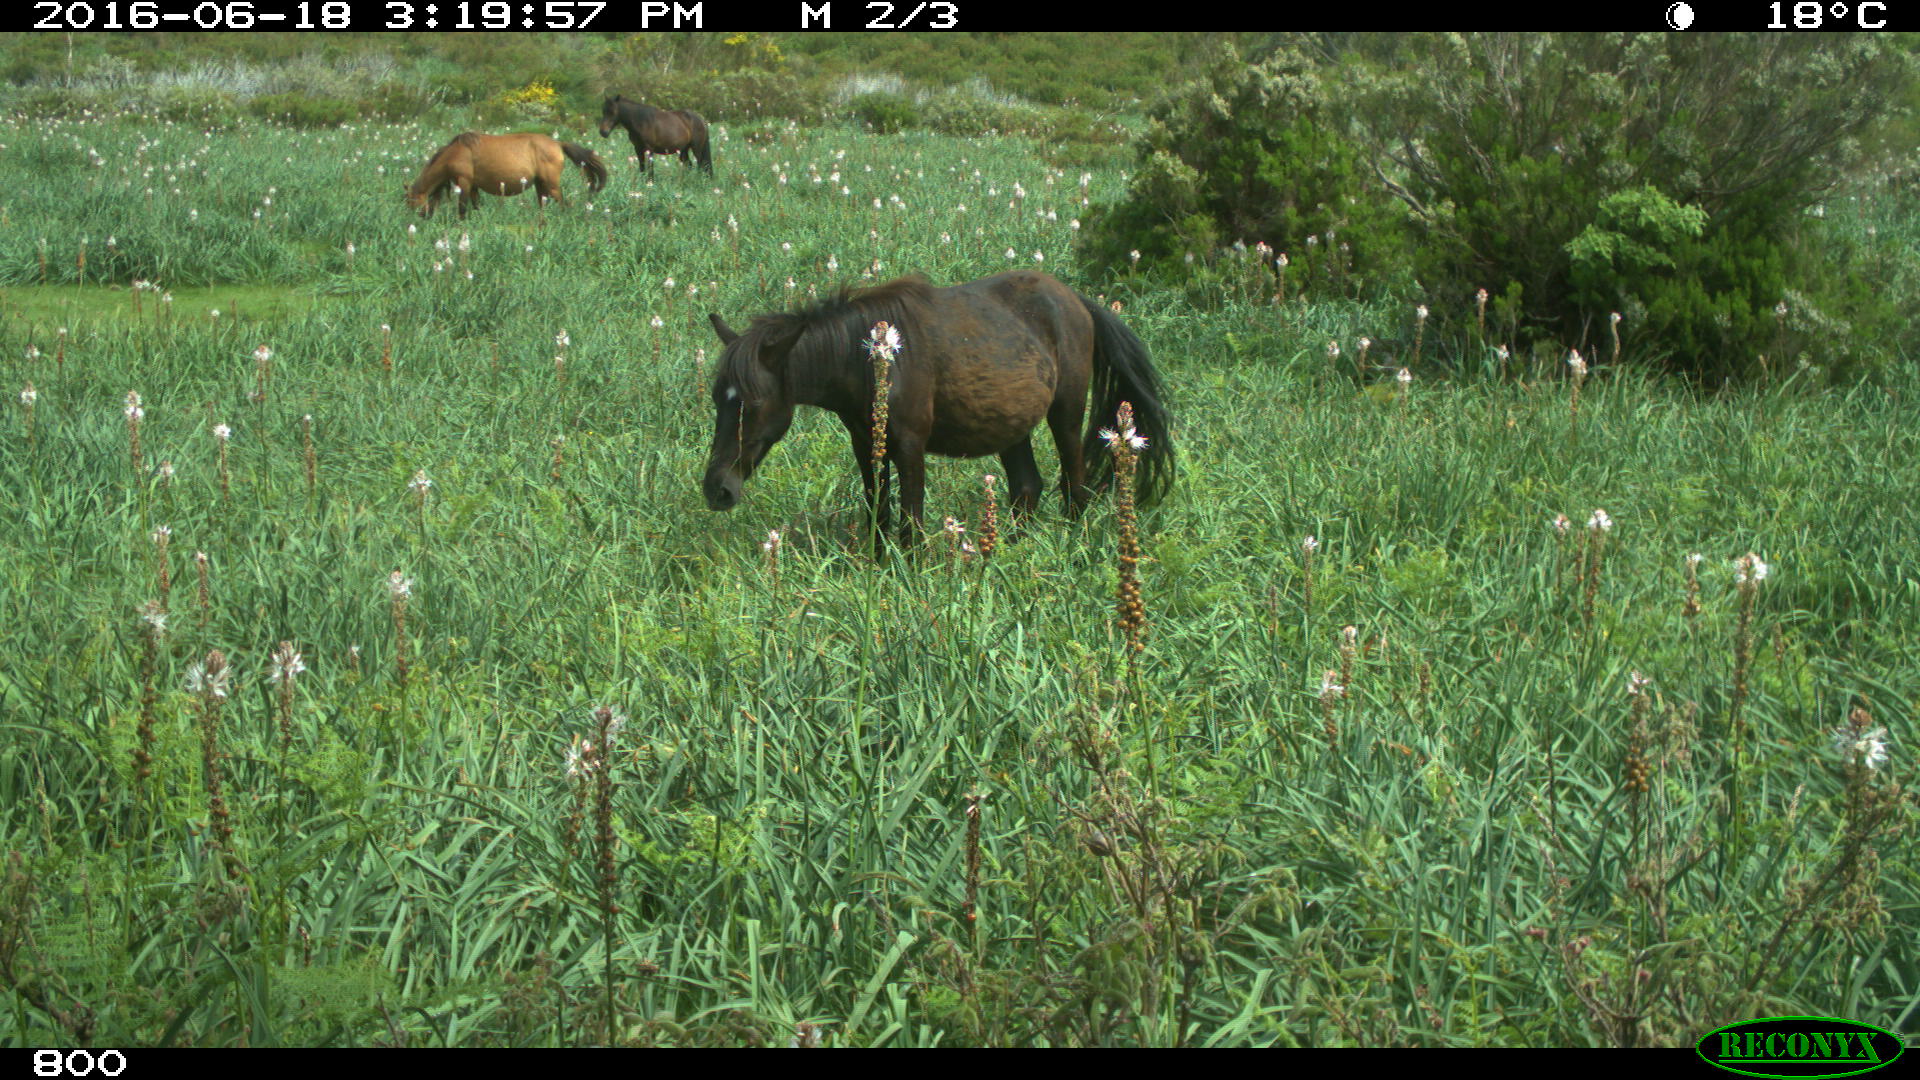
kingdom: Animalia
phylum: Chordata
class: Mammalia
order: Perissodactyla
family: Equidae
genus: Equus
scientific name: Equus caballus
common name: Horse
